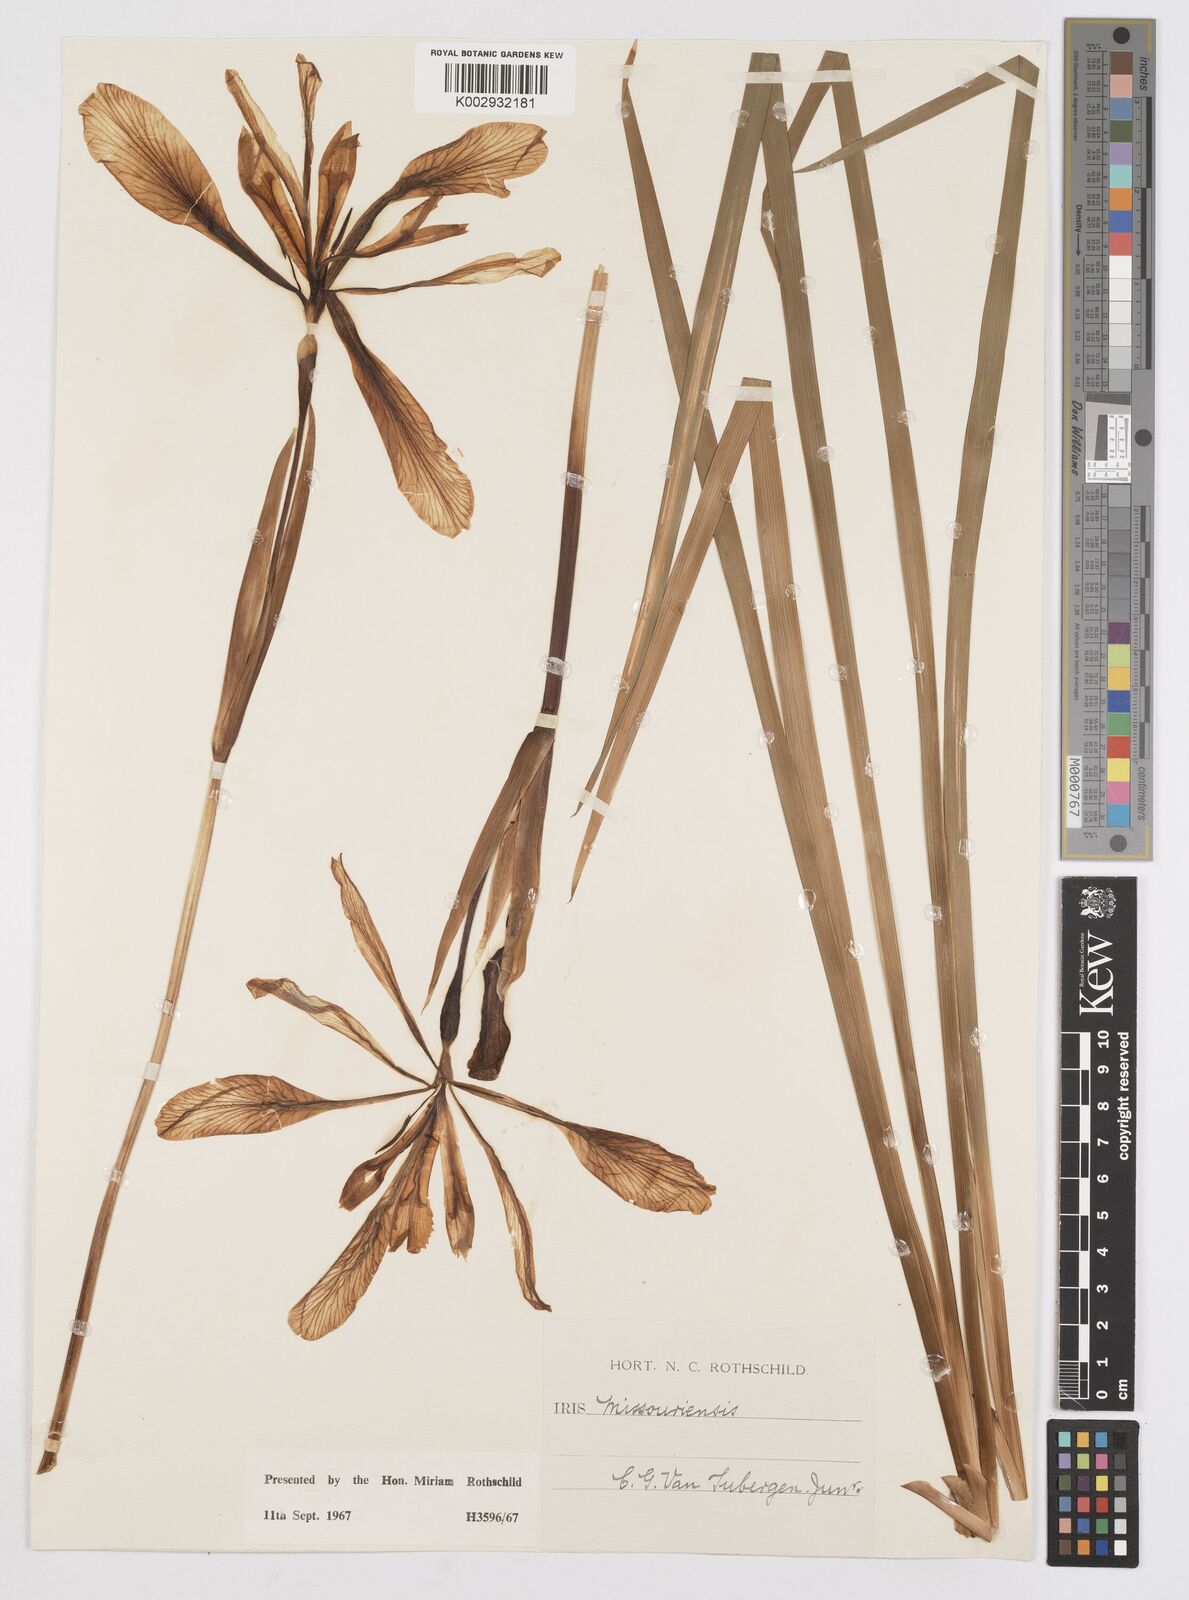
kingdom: Plantae
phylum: Tracheophyta
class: Liliopsida
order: Asparagales
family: Iridaceae
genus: Iris
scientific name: Iris missouriensis
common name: Rocky mountain iris
